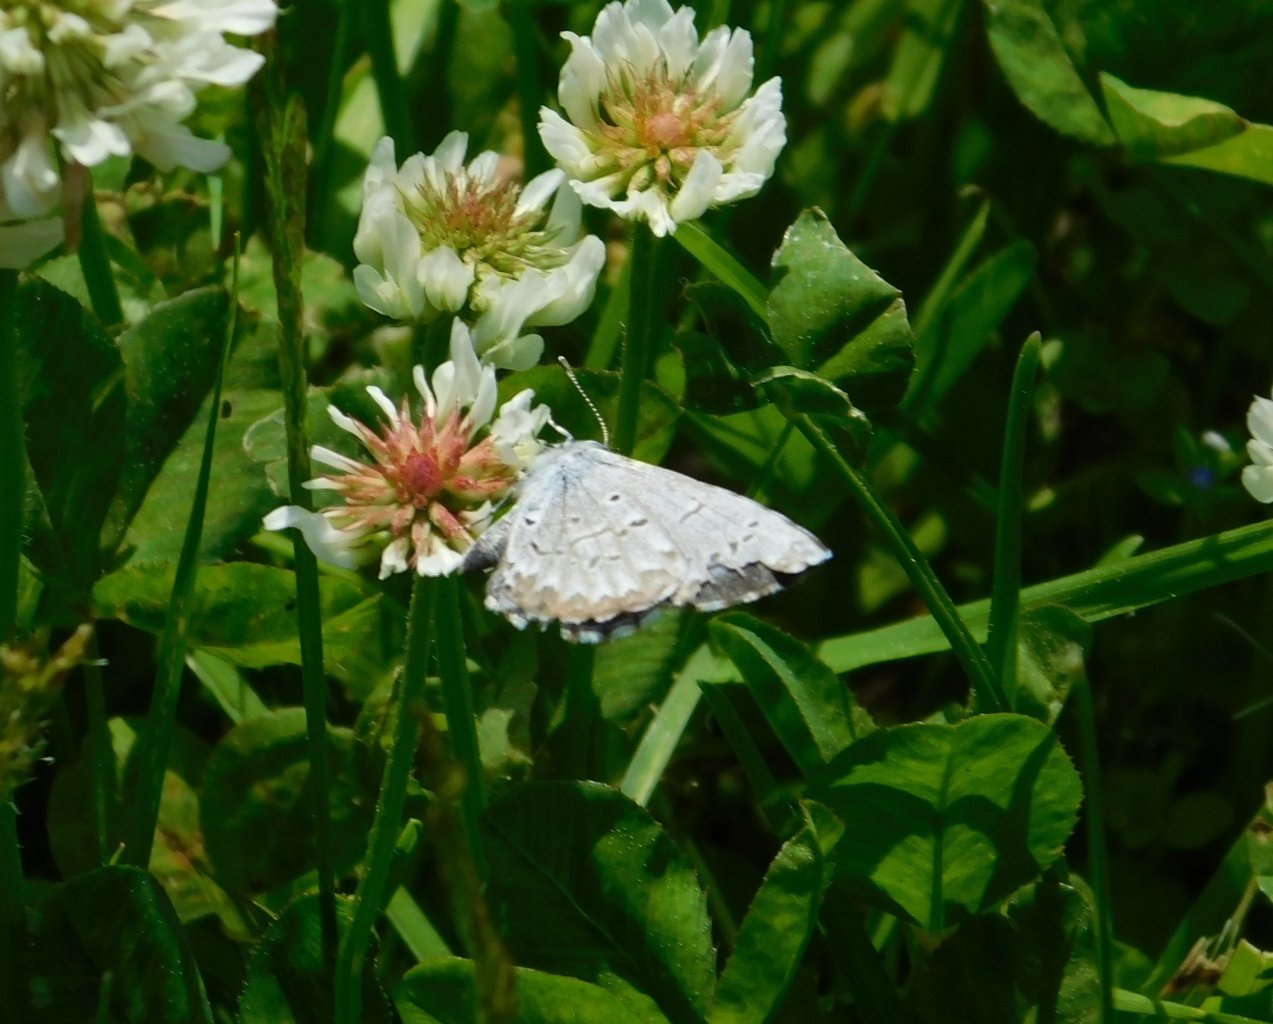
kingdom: Animalia
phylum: Arthropoda
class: Insecta
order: Lepidoptera
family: Lycaenidae
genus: Celastrina
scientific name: Celastrina lucia
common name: Northern Spring Azure
